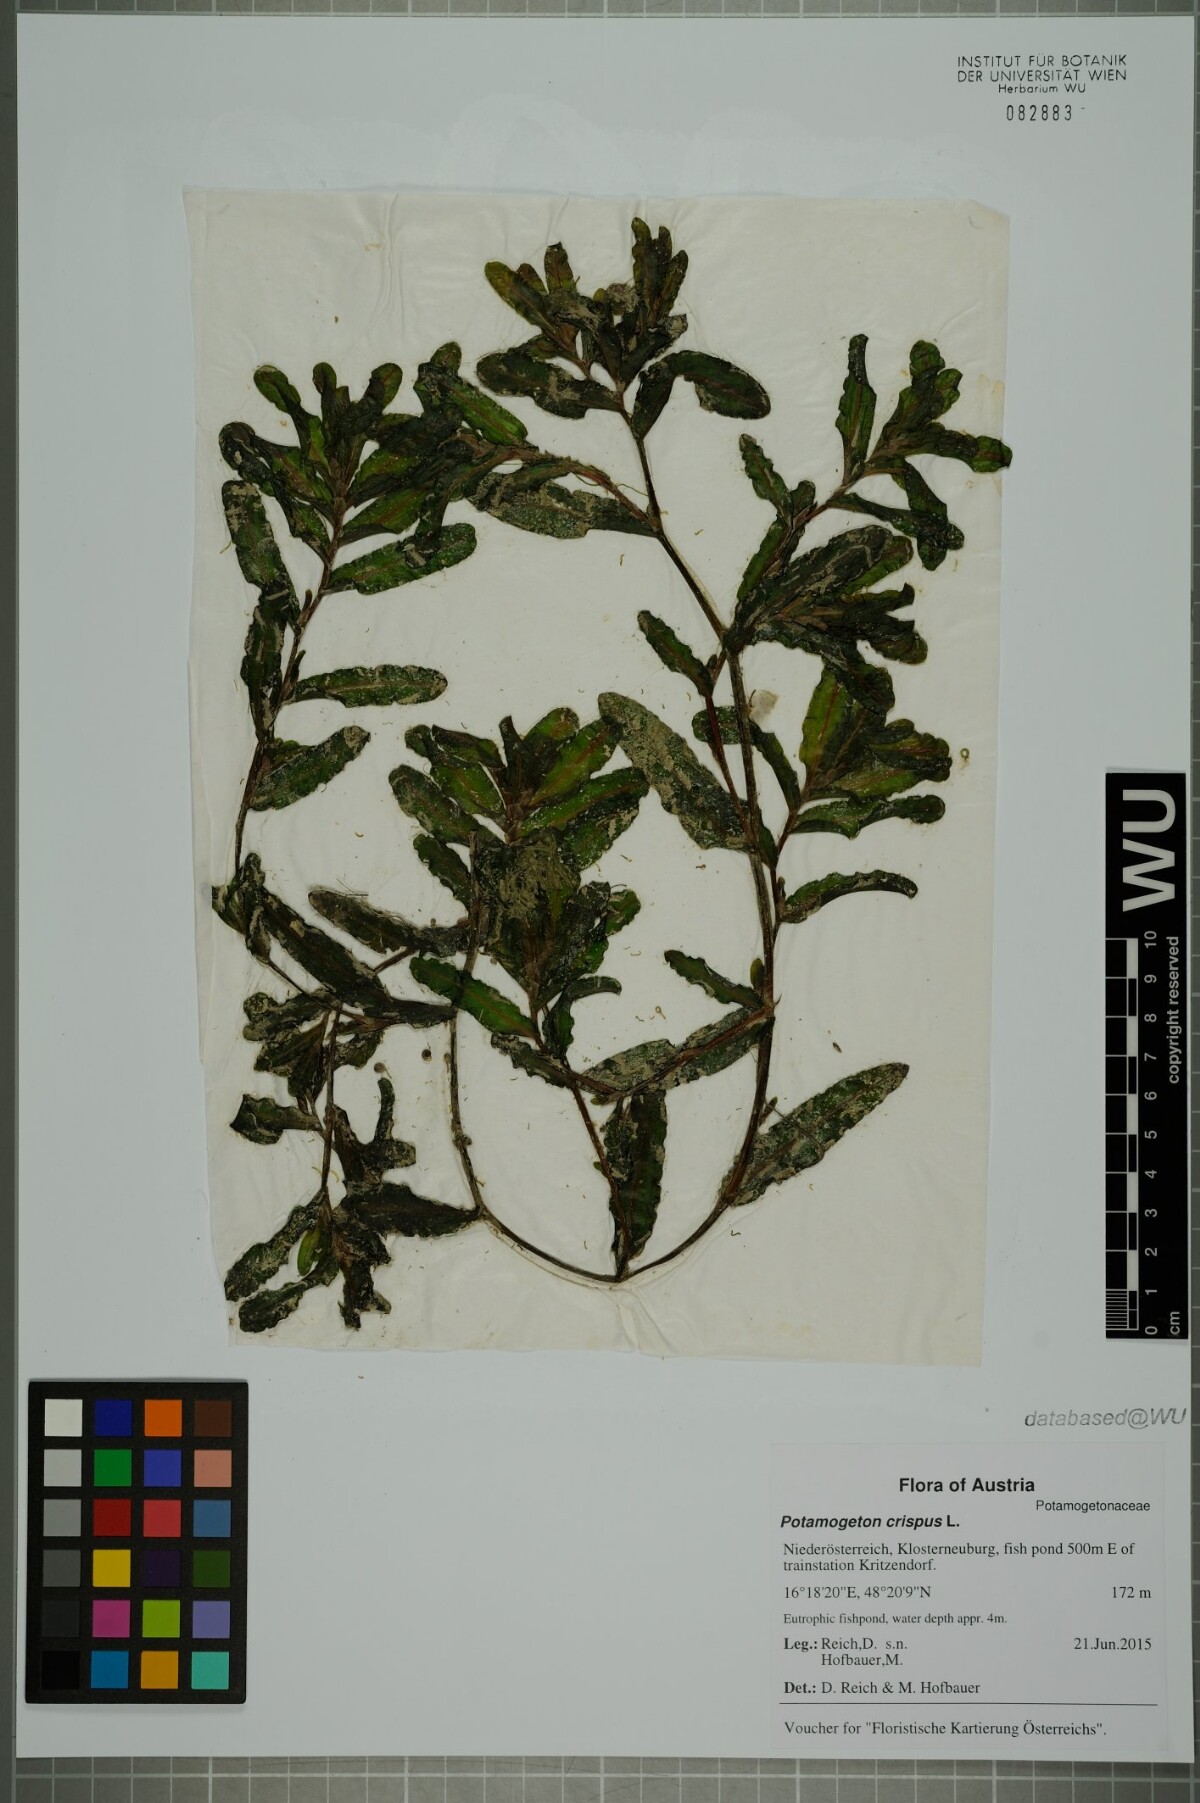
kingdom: Plantae
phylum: Tracheophyta
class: Liliopsida
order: Alismatales
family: Potamogetonaceae
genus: Potamogeton
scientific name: Potamogeton crispus
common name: Curled pondweed
